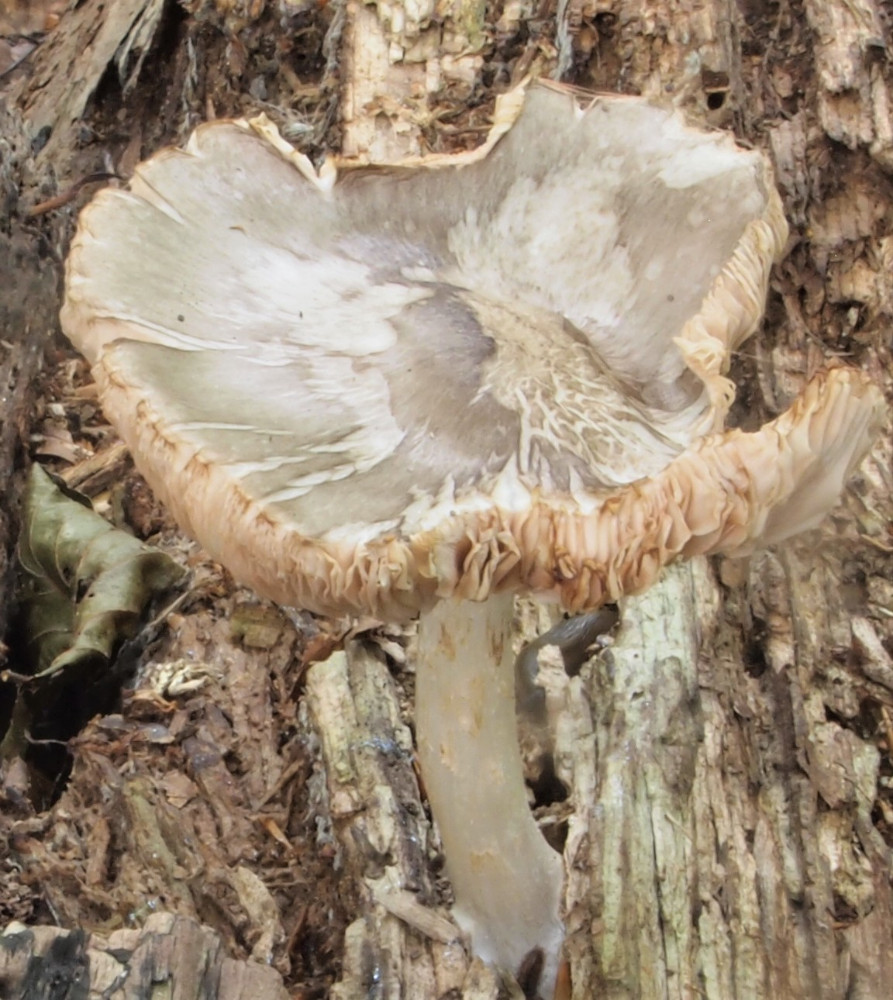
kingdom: Fungi
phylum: Basidiomycota
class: Agaricomycetes
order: Agaricales
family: Pluteaceae
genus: Pluteus
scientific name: Pluteus salicinus
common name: stiv skærmhat
